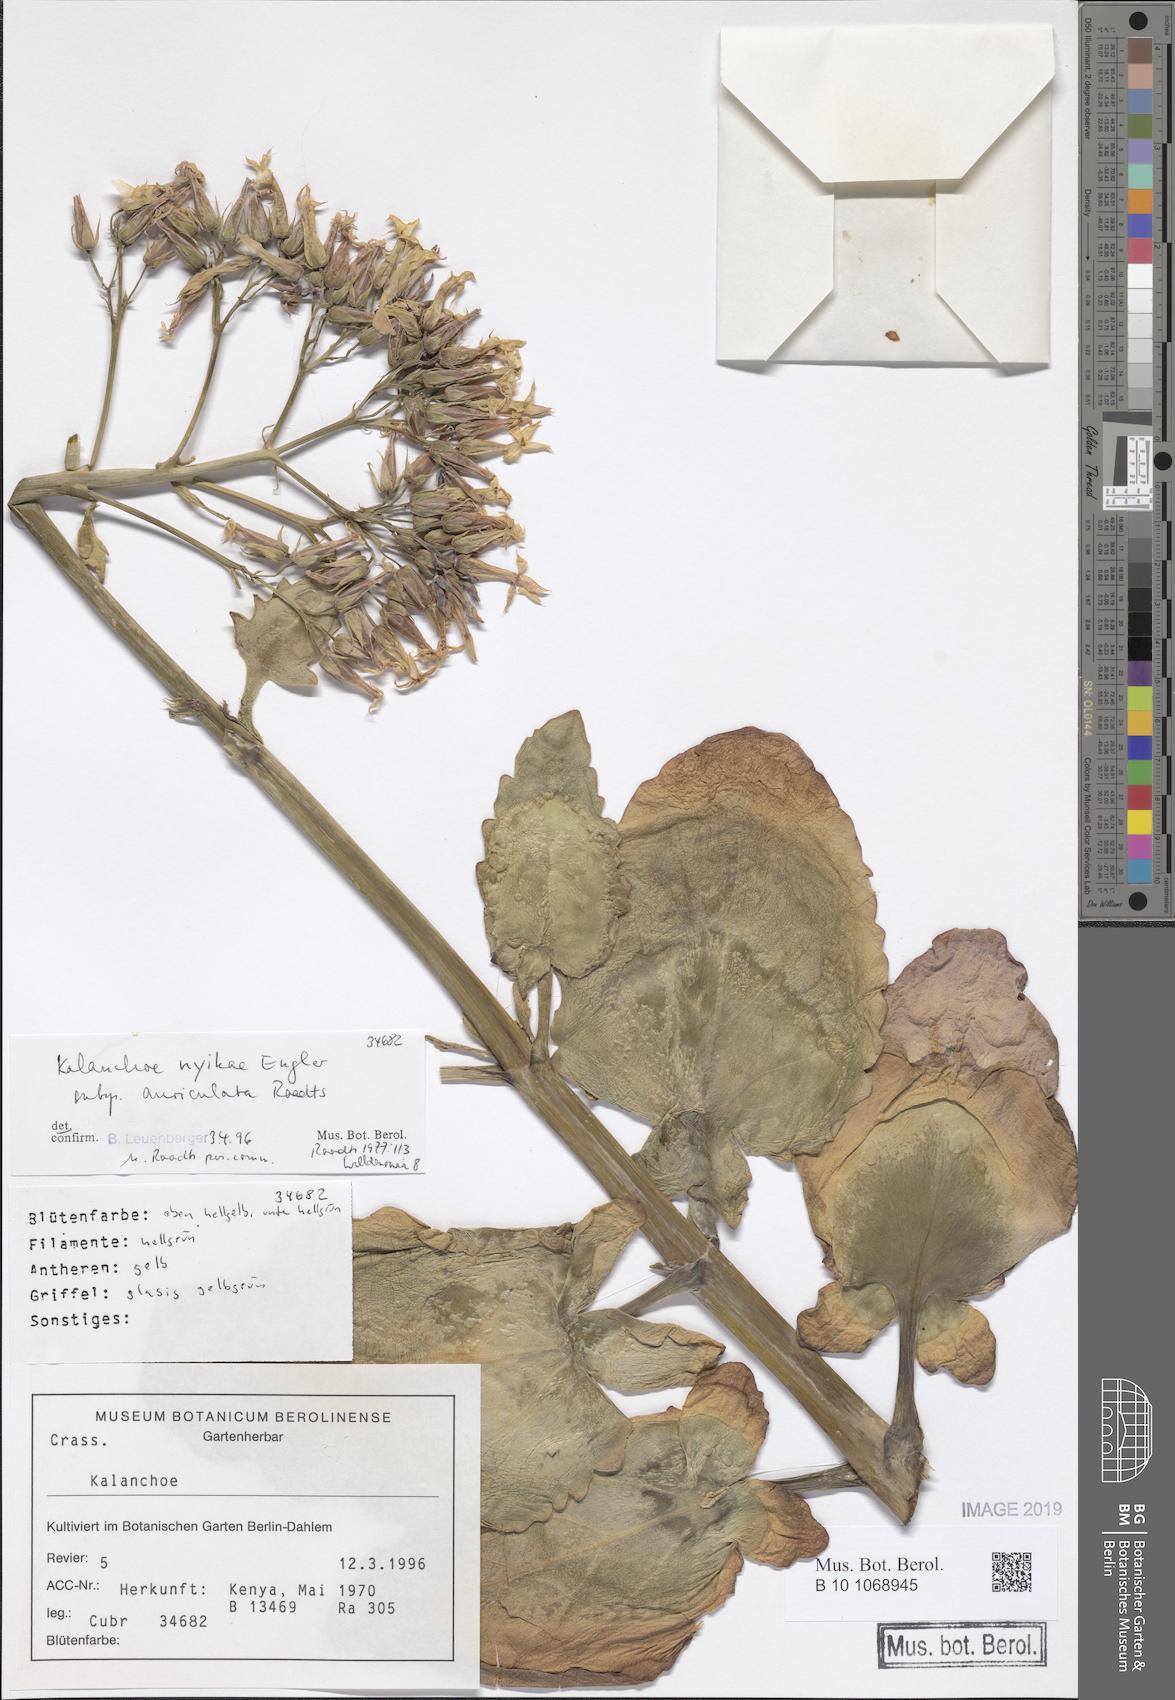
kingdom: Plantae
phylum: Tracheophyta
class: Magnoliopsida
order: Saxifragales
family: Crassulaceae
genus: Kalanchoe
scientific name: Kalanchoe auriculata
